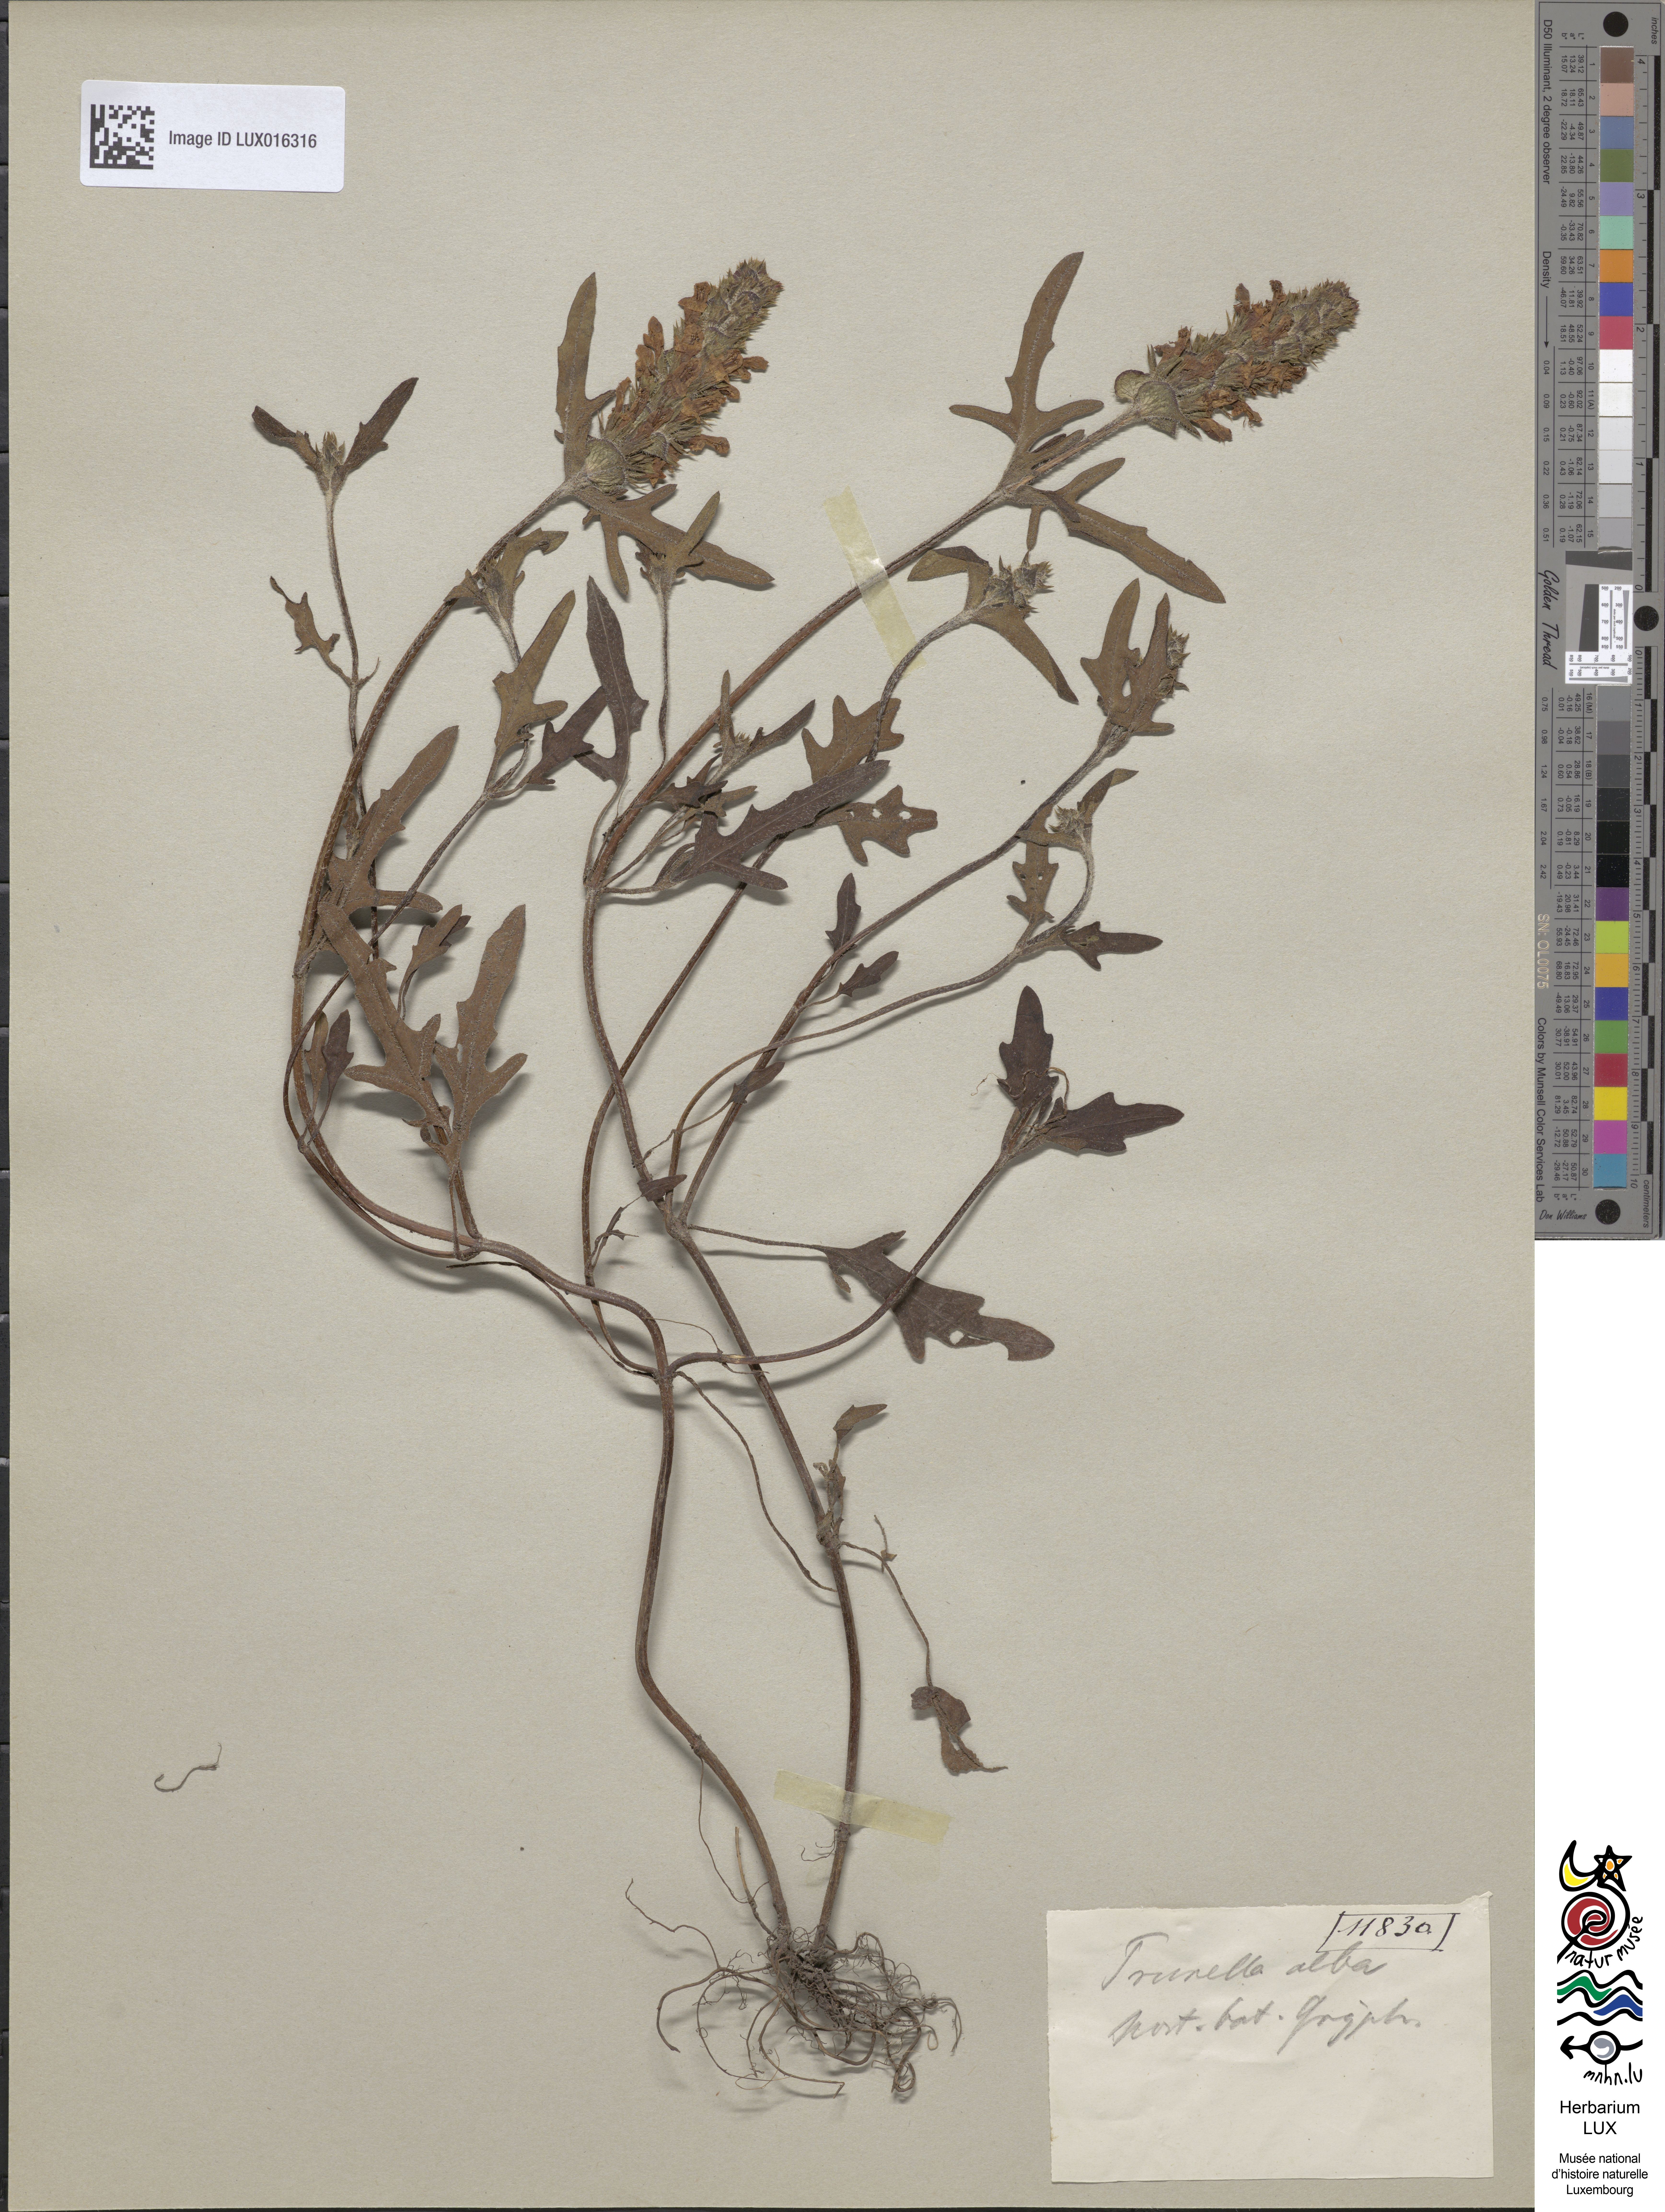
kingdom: Plantae
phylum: Tracheophyta
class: Magnoliopsida
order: Lamiales
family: Lamiaceae
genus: Prunella
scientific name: Prunella laciniata
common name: Cut-leaved selfheal
